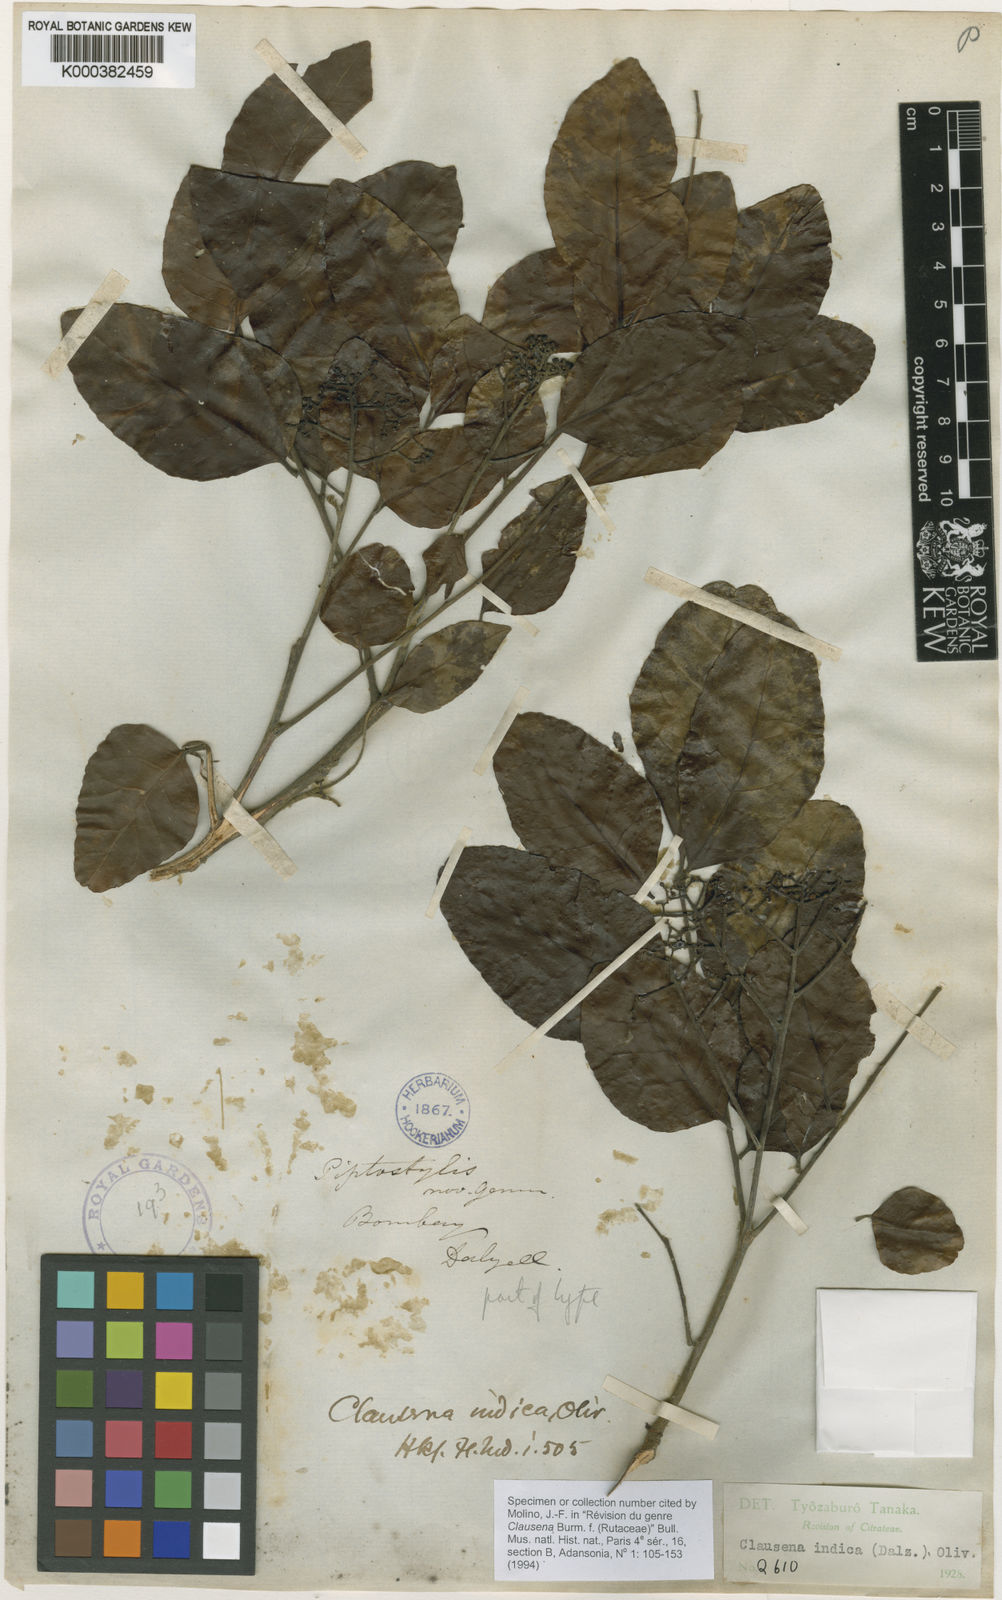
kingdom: Plantae
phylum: Tracheophyta
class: Magnoliopsida
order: Sapindales
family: Rutaceae
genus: Clausena
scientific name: Clausena indica
